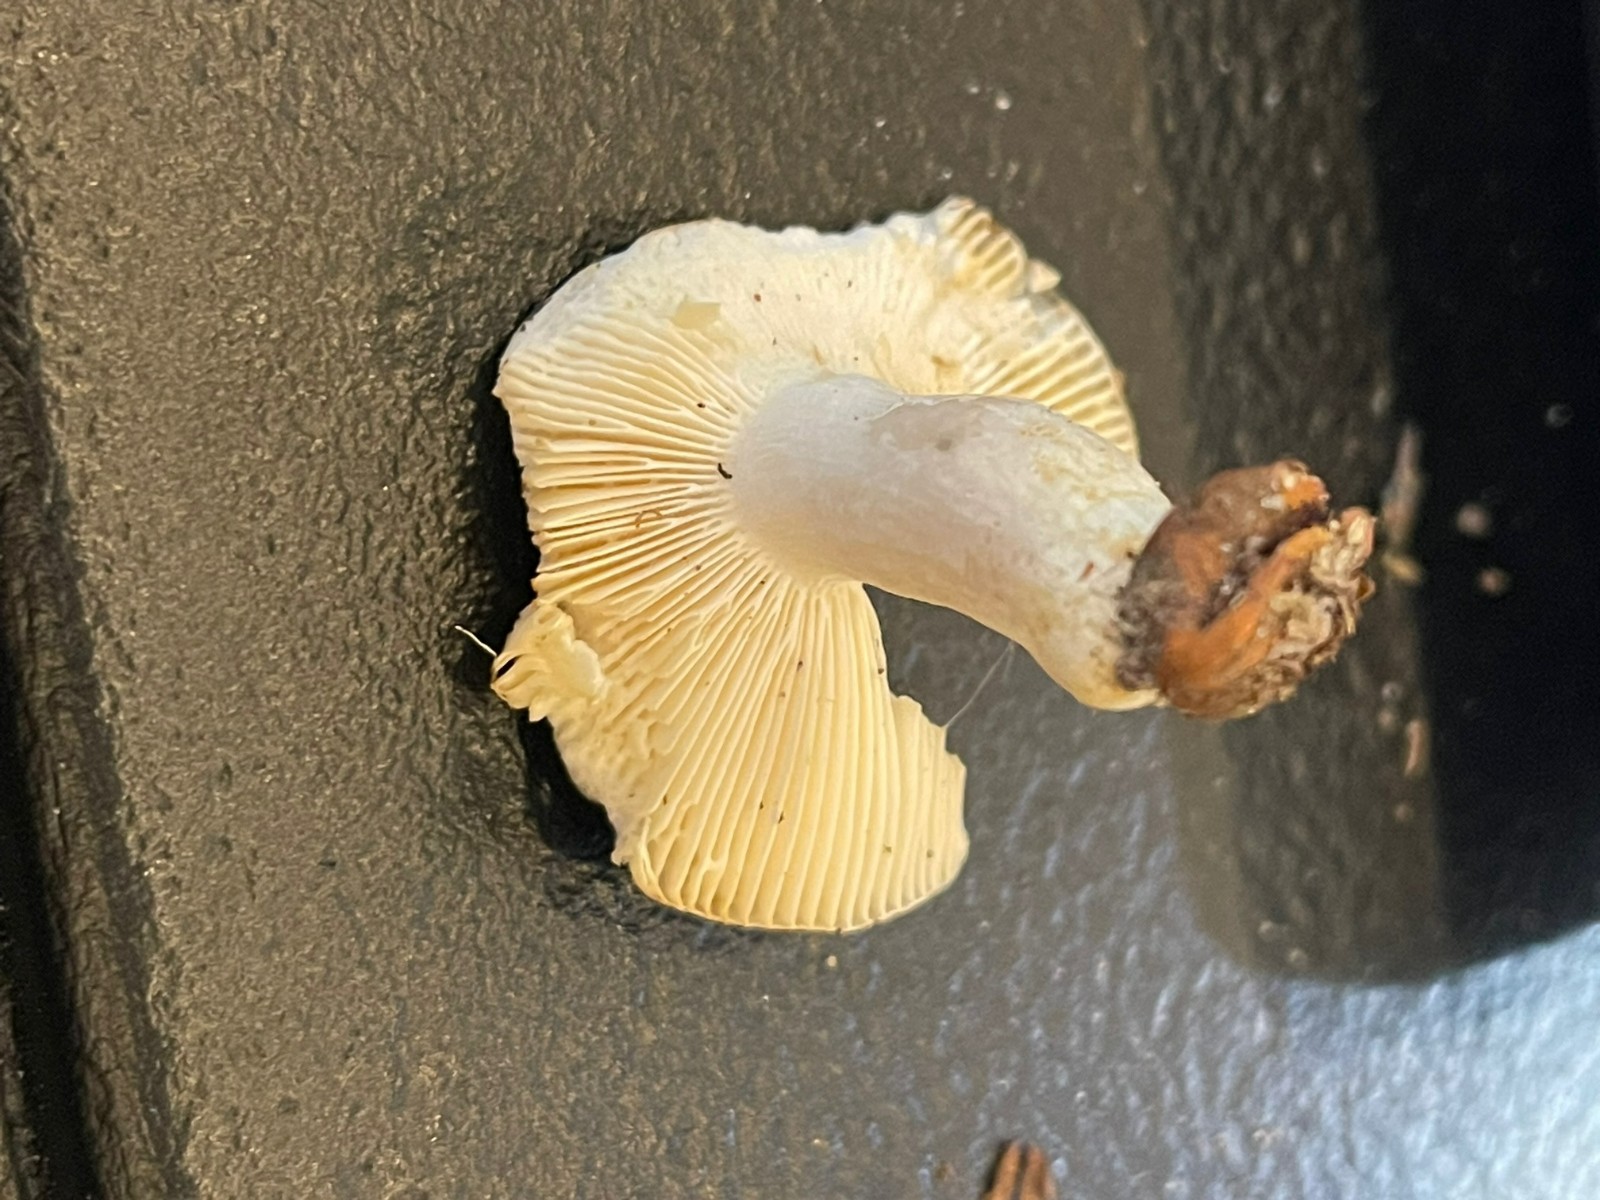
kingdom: Fungi
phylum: Basidiomycota
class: Agaricomycetes
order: Russulales
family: Russulaceae
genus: Russula
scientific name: Russula cyanoxantha
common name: broget skørhat
